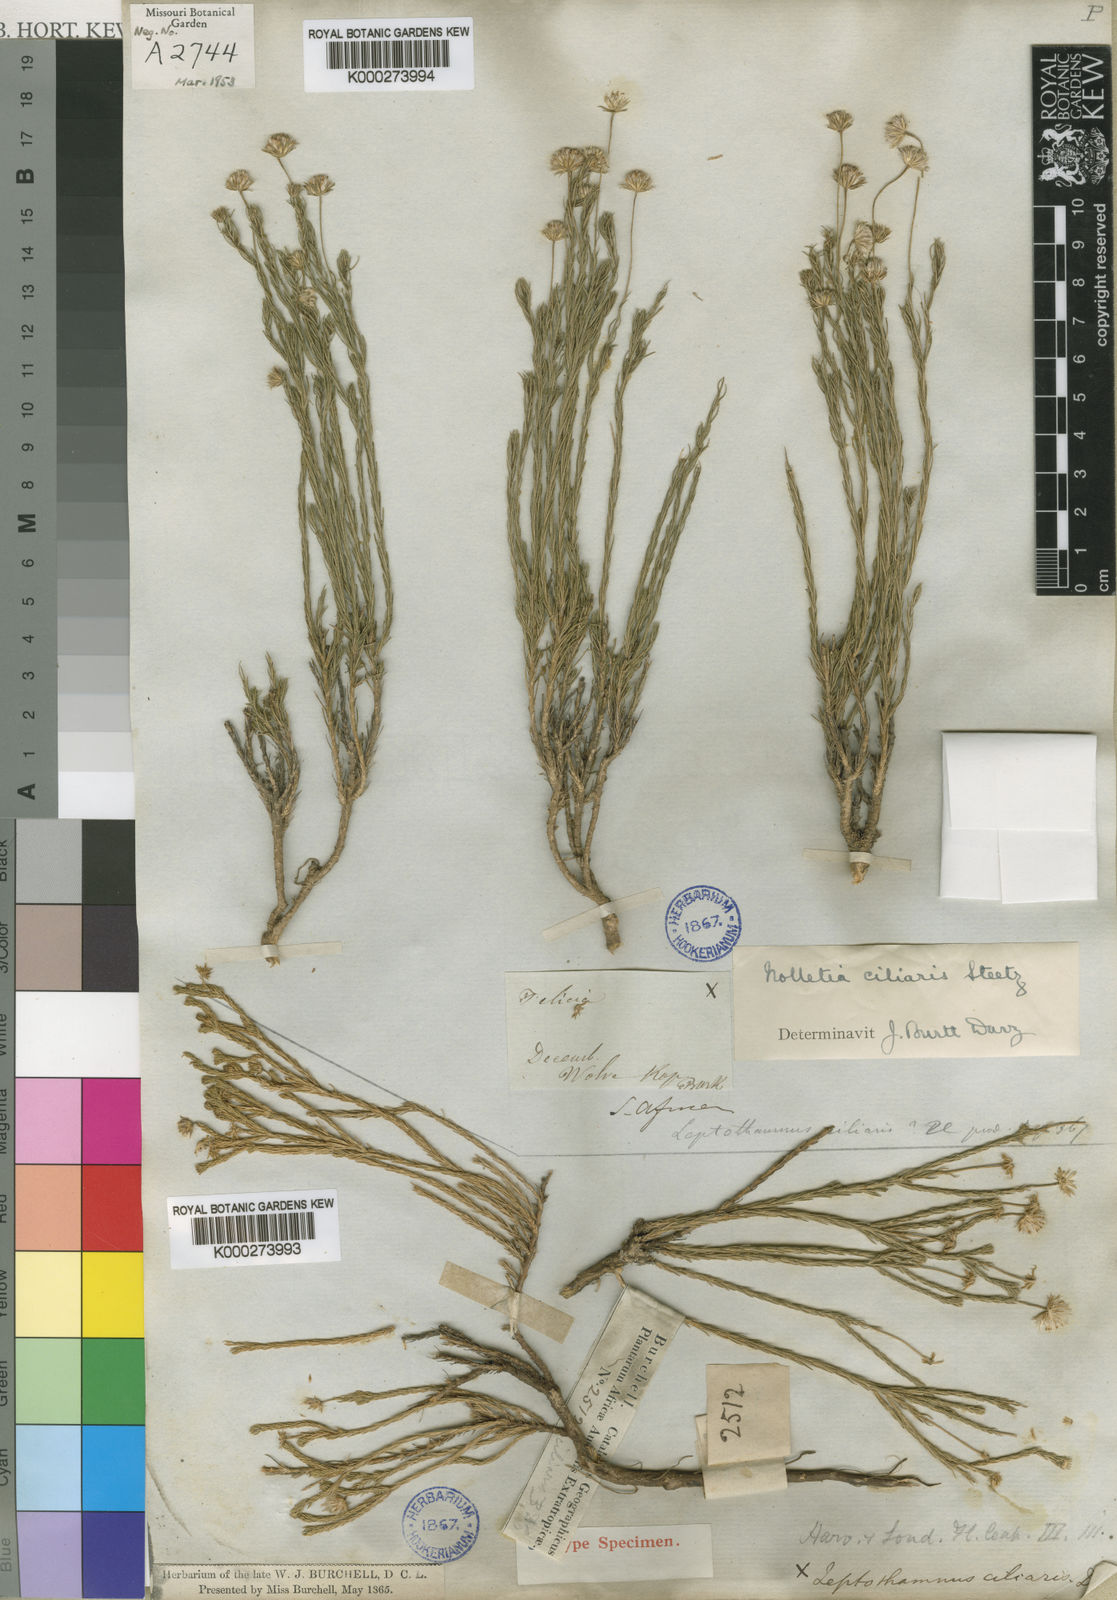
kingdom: Plantae
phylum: Tracheophyta
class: Magnoliopsida
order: Asterales
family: Asteraceae
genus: Nolletia
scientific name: Nolletia ciliaris
